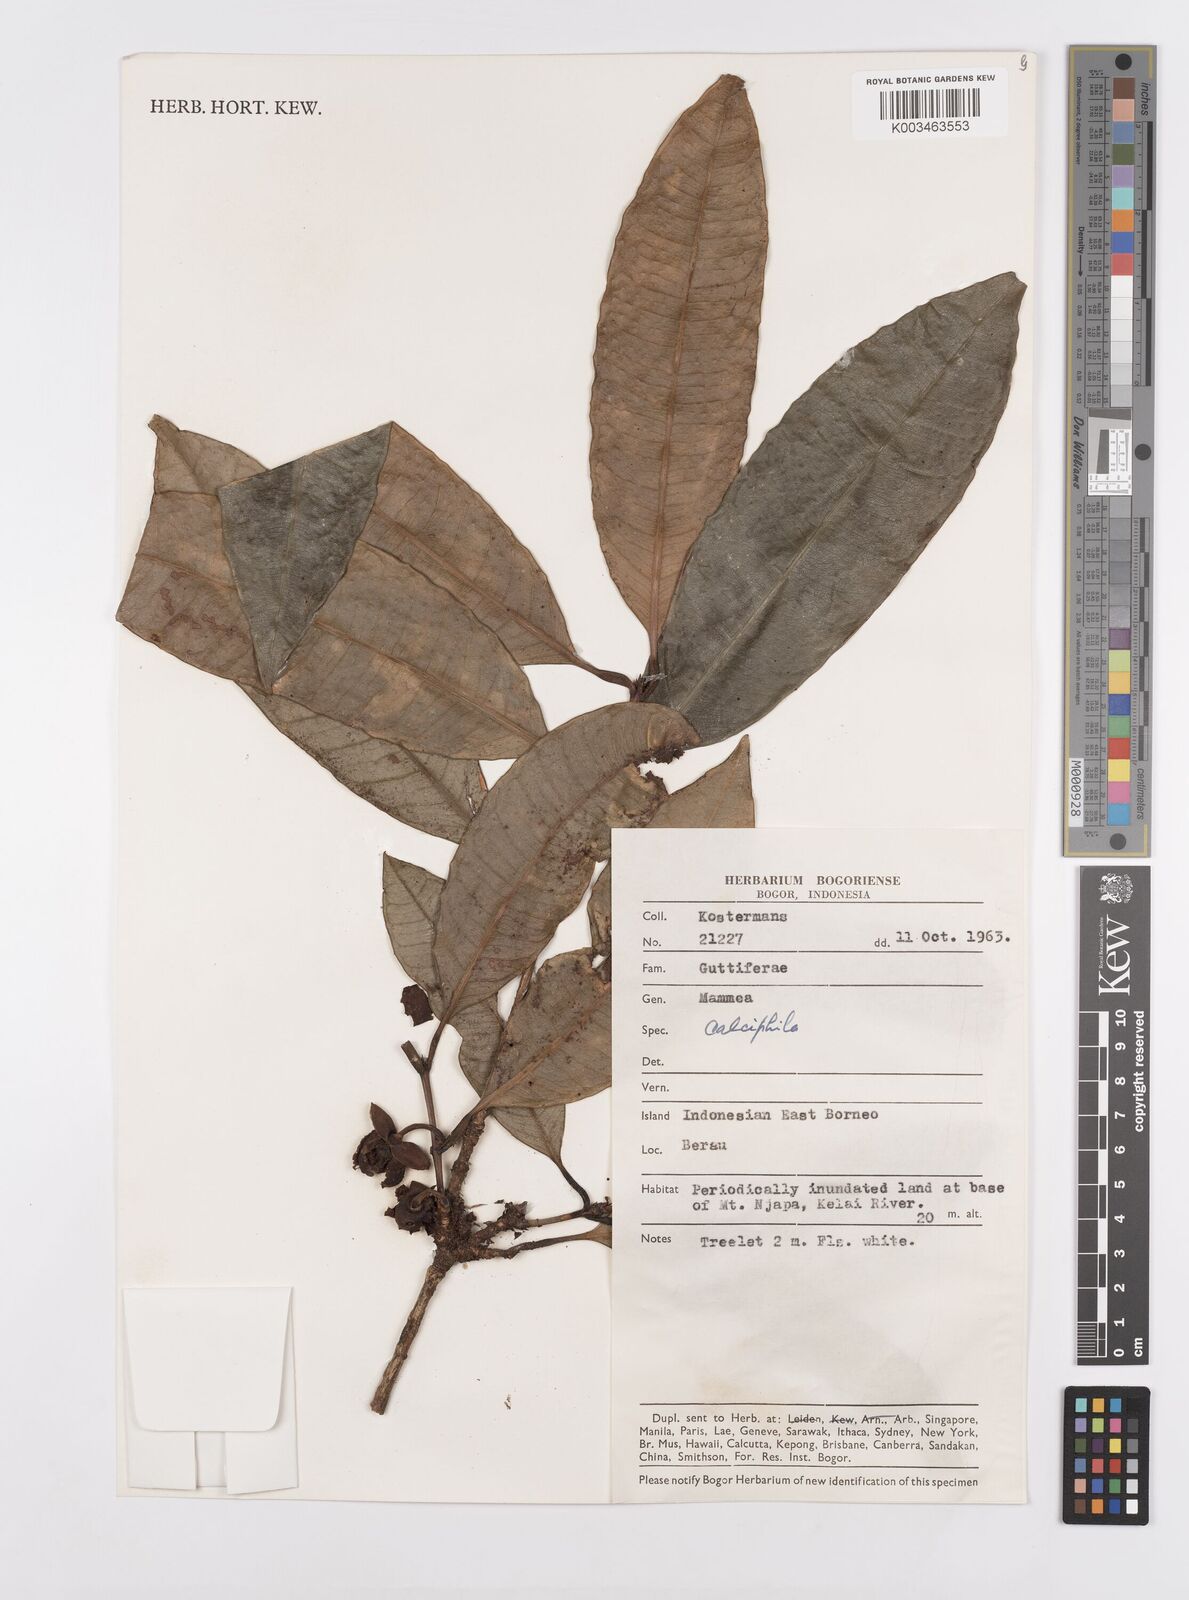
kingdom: Plantae
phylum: Tracheophyta
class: Magnoliopsida
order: Malpighiales
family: Calophyllaceae
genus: Mammea
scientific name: Mammea calciphila
